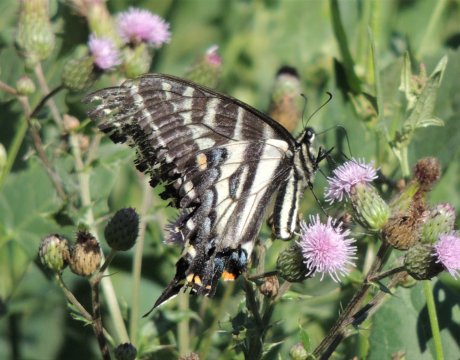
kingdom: Animalia
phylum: Arthropoda
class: Insecta
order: Lepidoptera
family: Papilionidae
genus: Pterourus
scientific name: Pterourus eurymedon
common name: Pale Swallowtail
